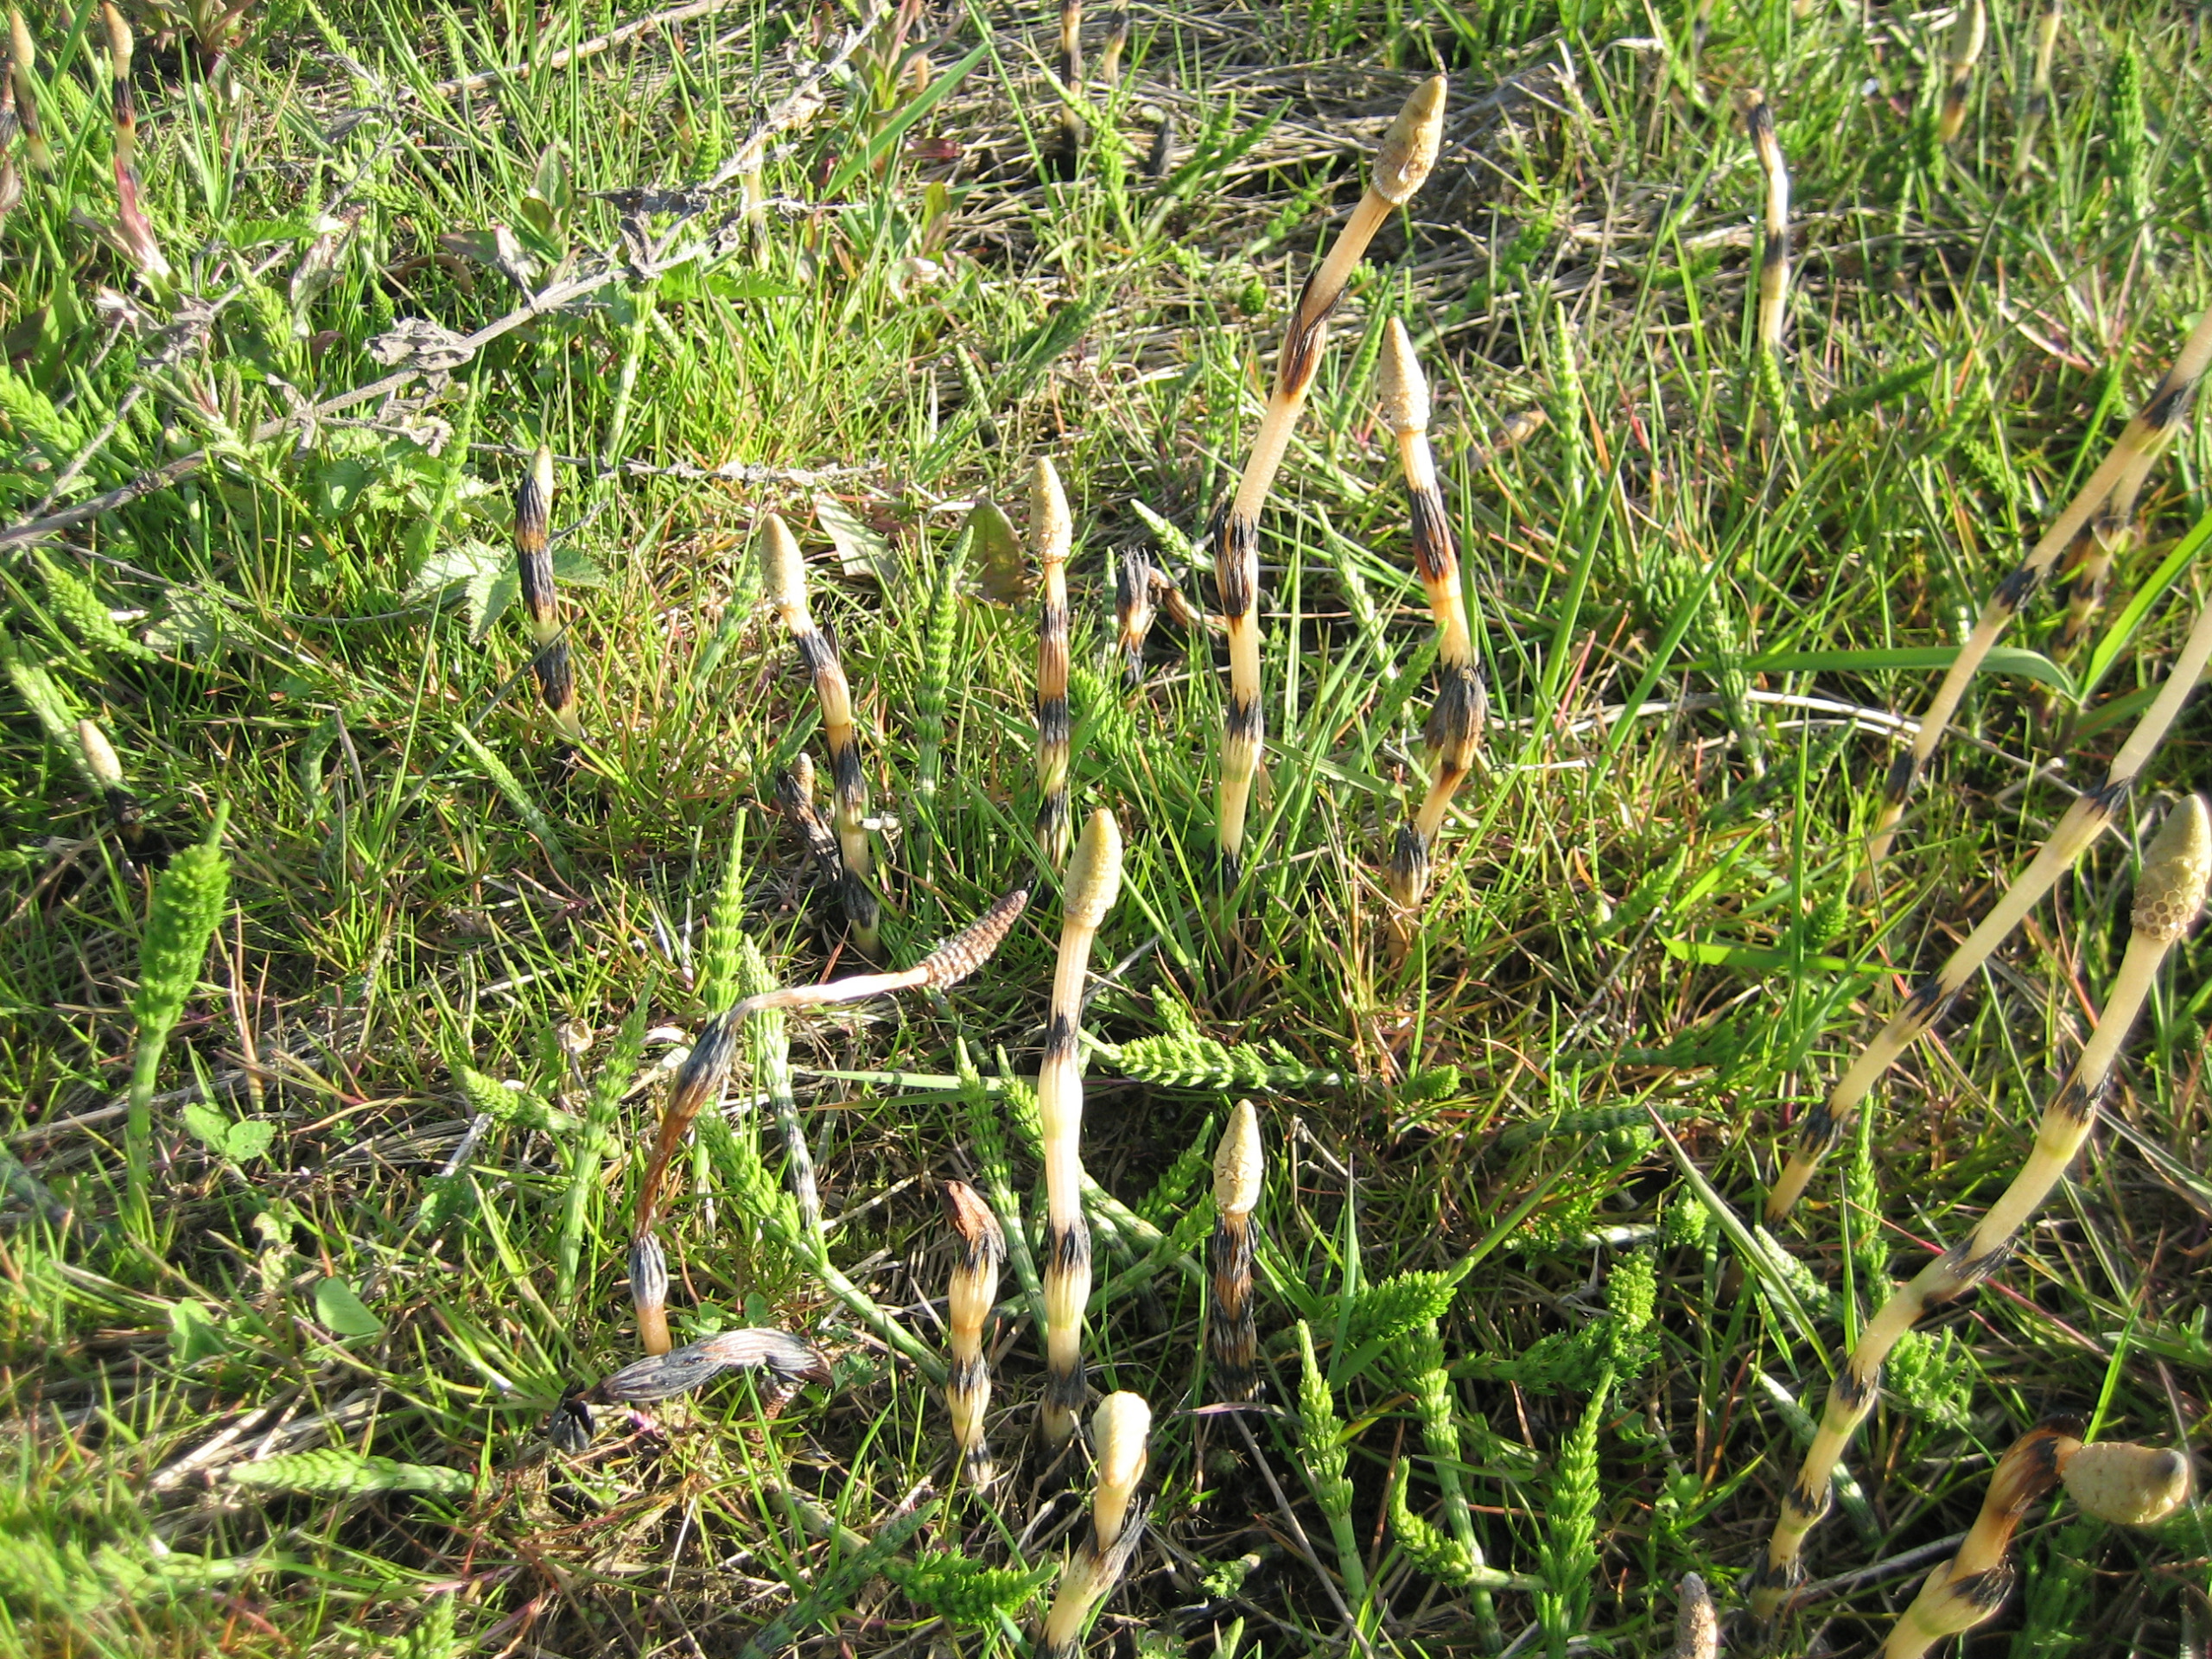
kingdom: Plantae
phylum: Tracheophyta
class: Polypodiopsida
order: Equisetales
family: Equisetaceae
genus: Equisetum
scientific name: Equisetum arvense
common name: Ager-padderok
